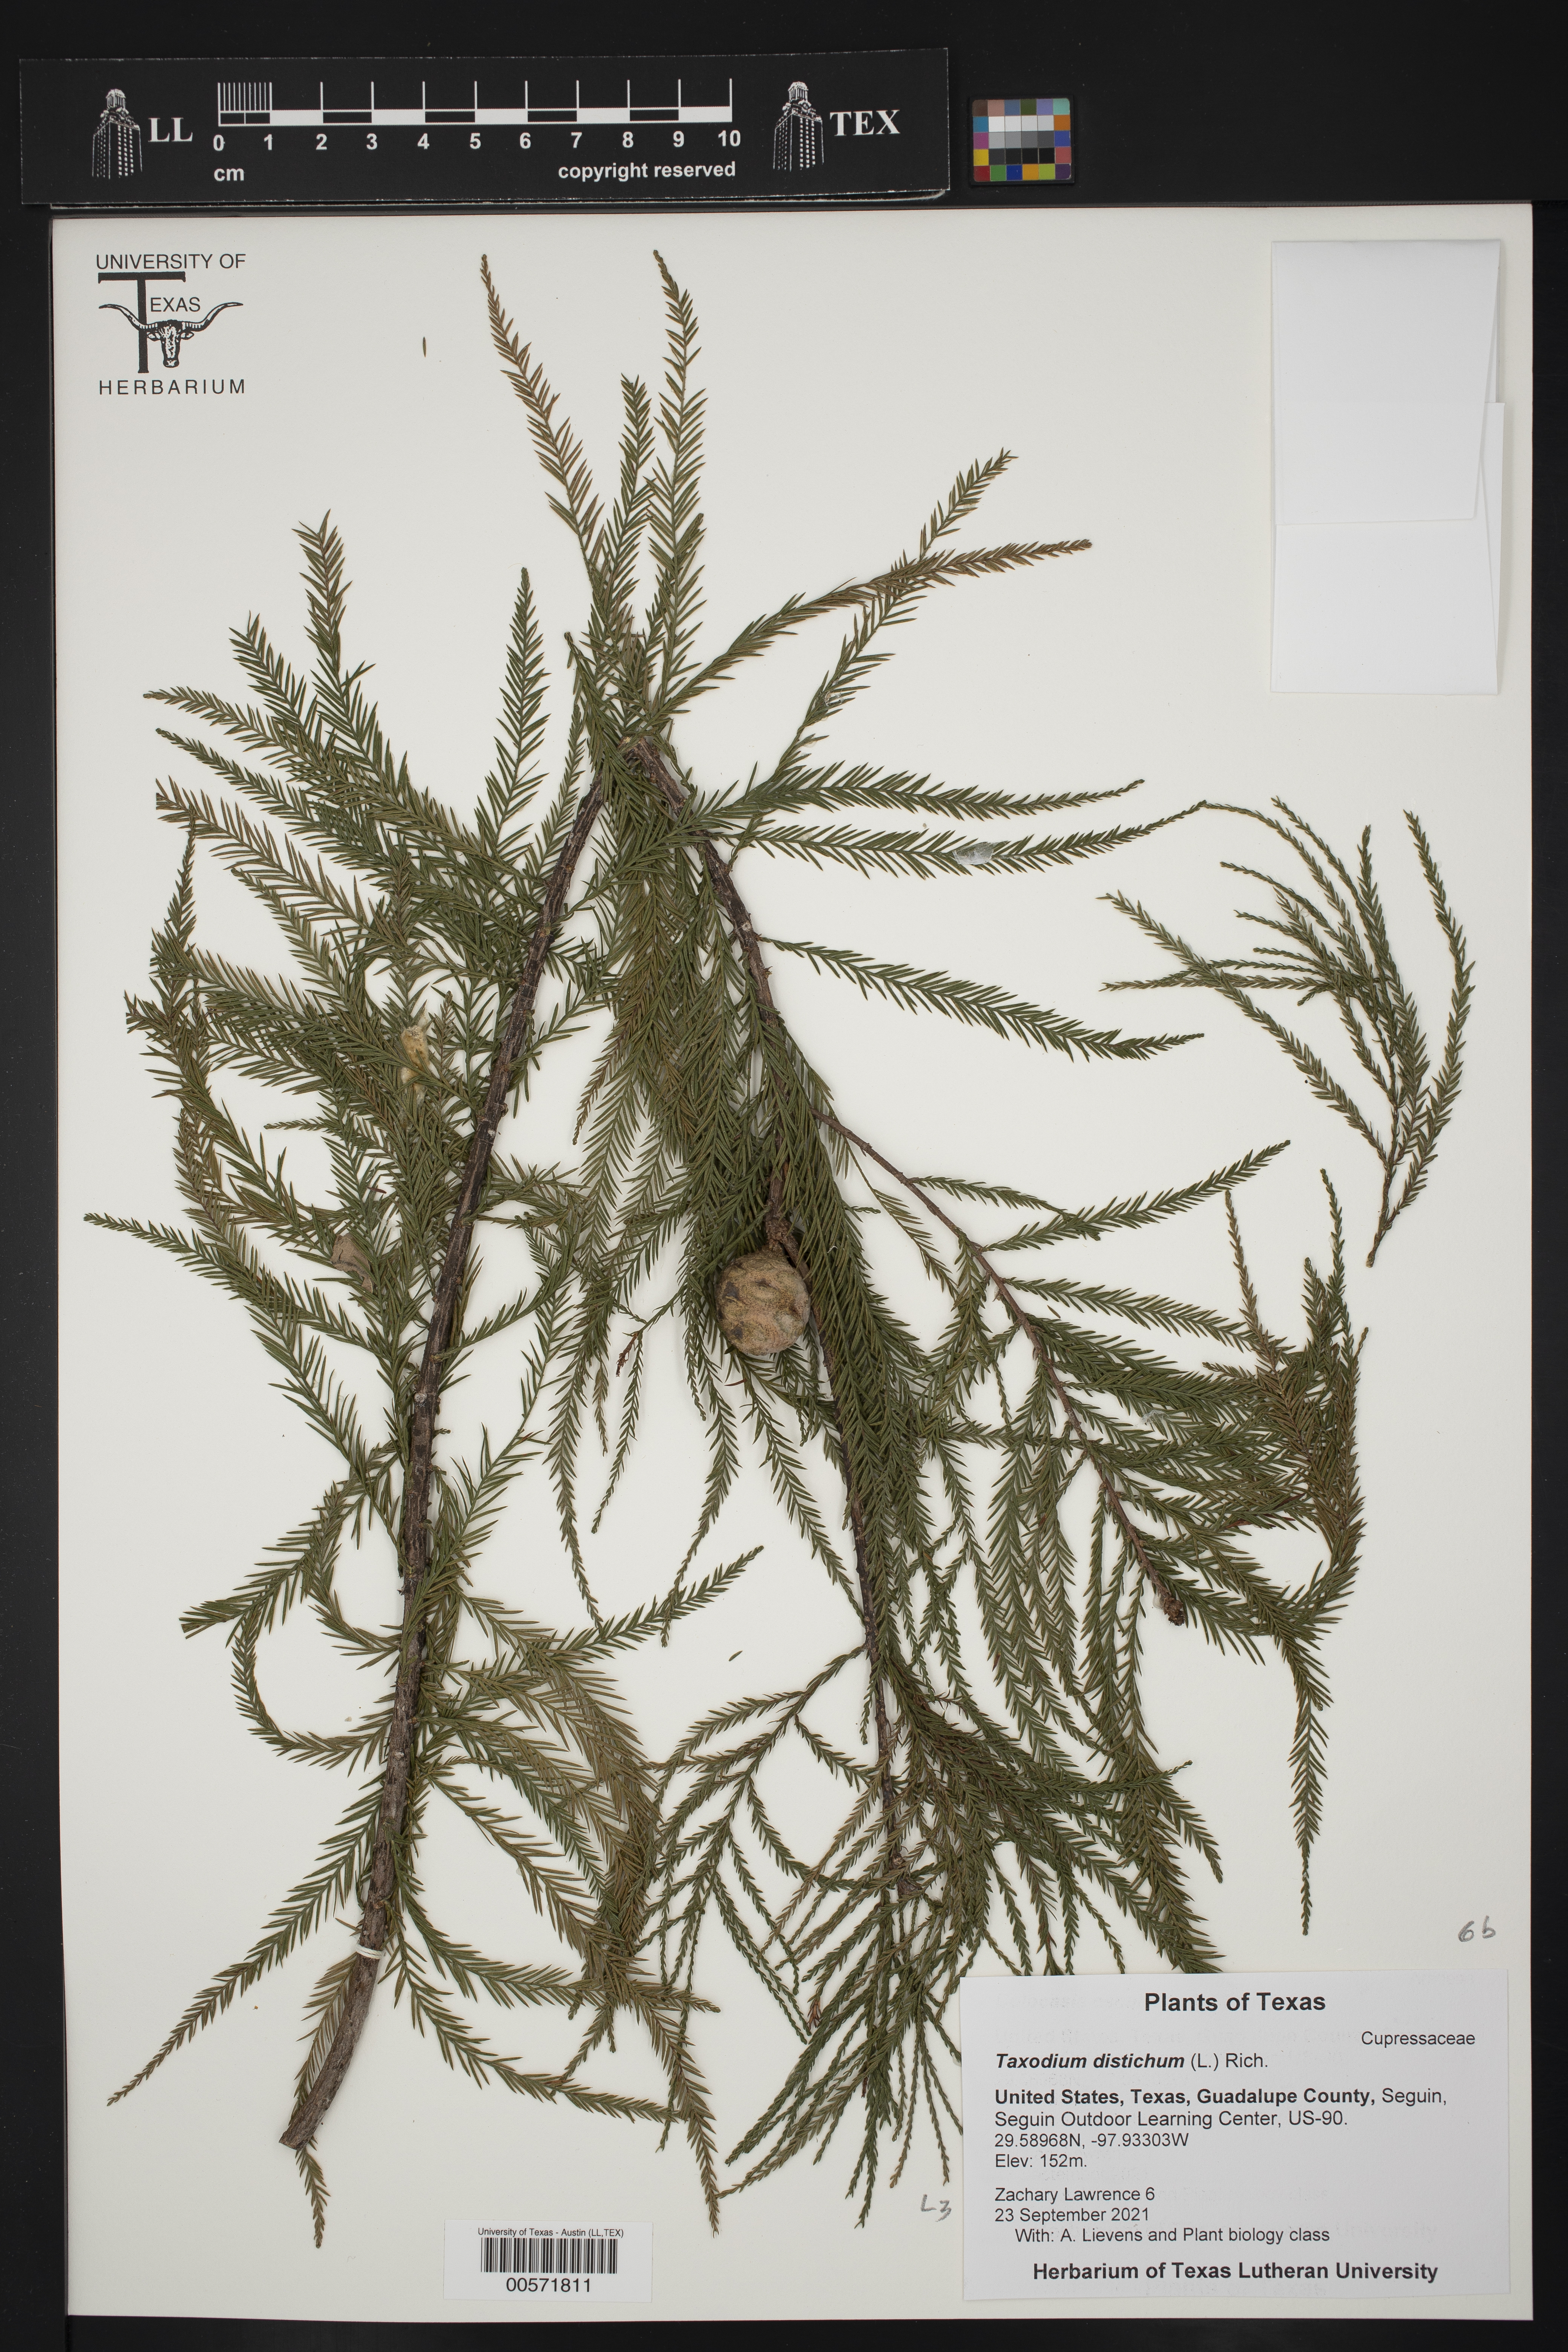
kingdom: Plantae
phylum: Tracheophyta
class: Pinopsida
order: Pinales
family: Cupressaceae
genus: Taxodium
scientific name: Taxodium distichum
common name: Bald cypress
